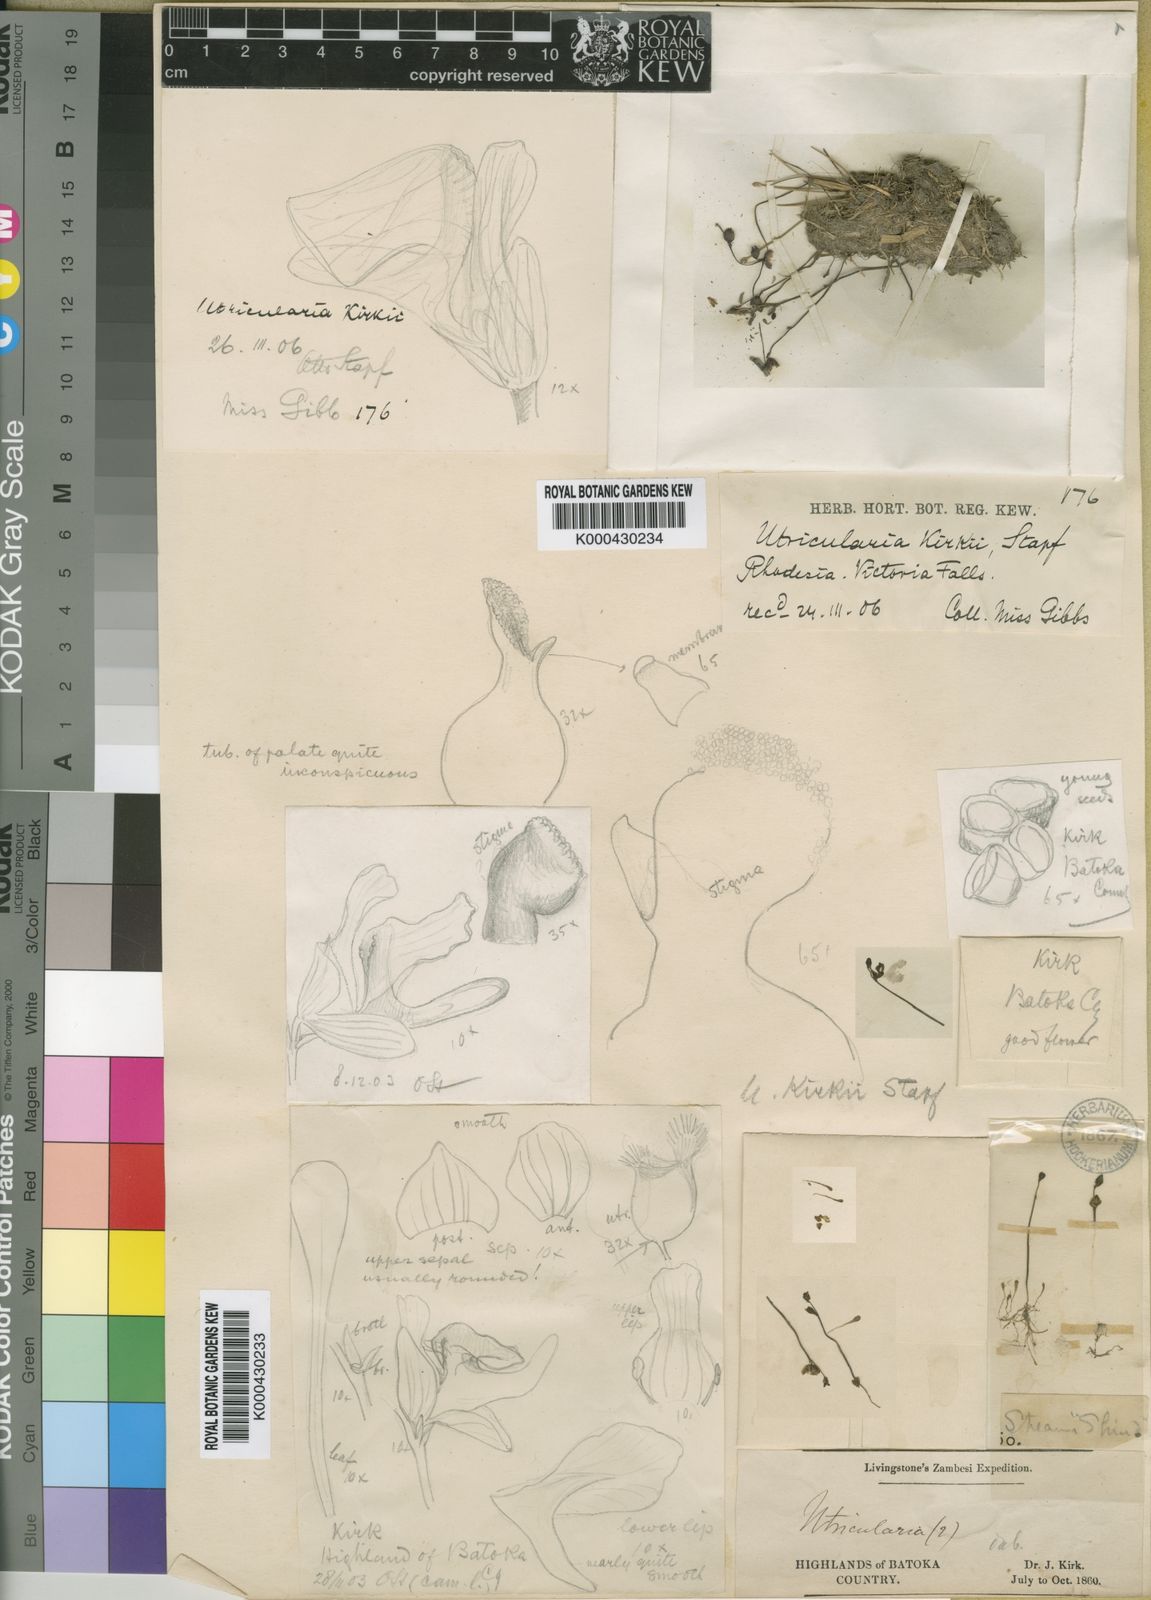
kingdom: Plantae
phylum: Tracheophyta
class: Magnoliopsida
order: Lamiales
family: Lentibulariaceae
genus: Utricularia
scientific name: Utricularia livida
